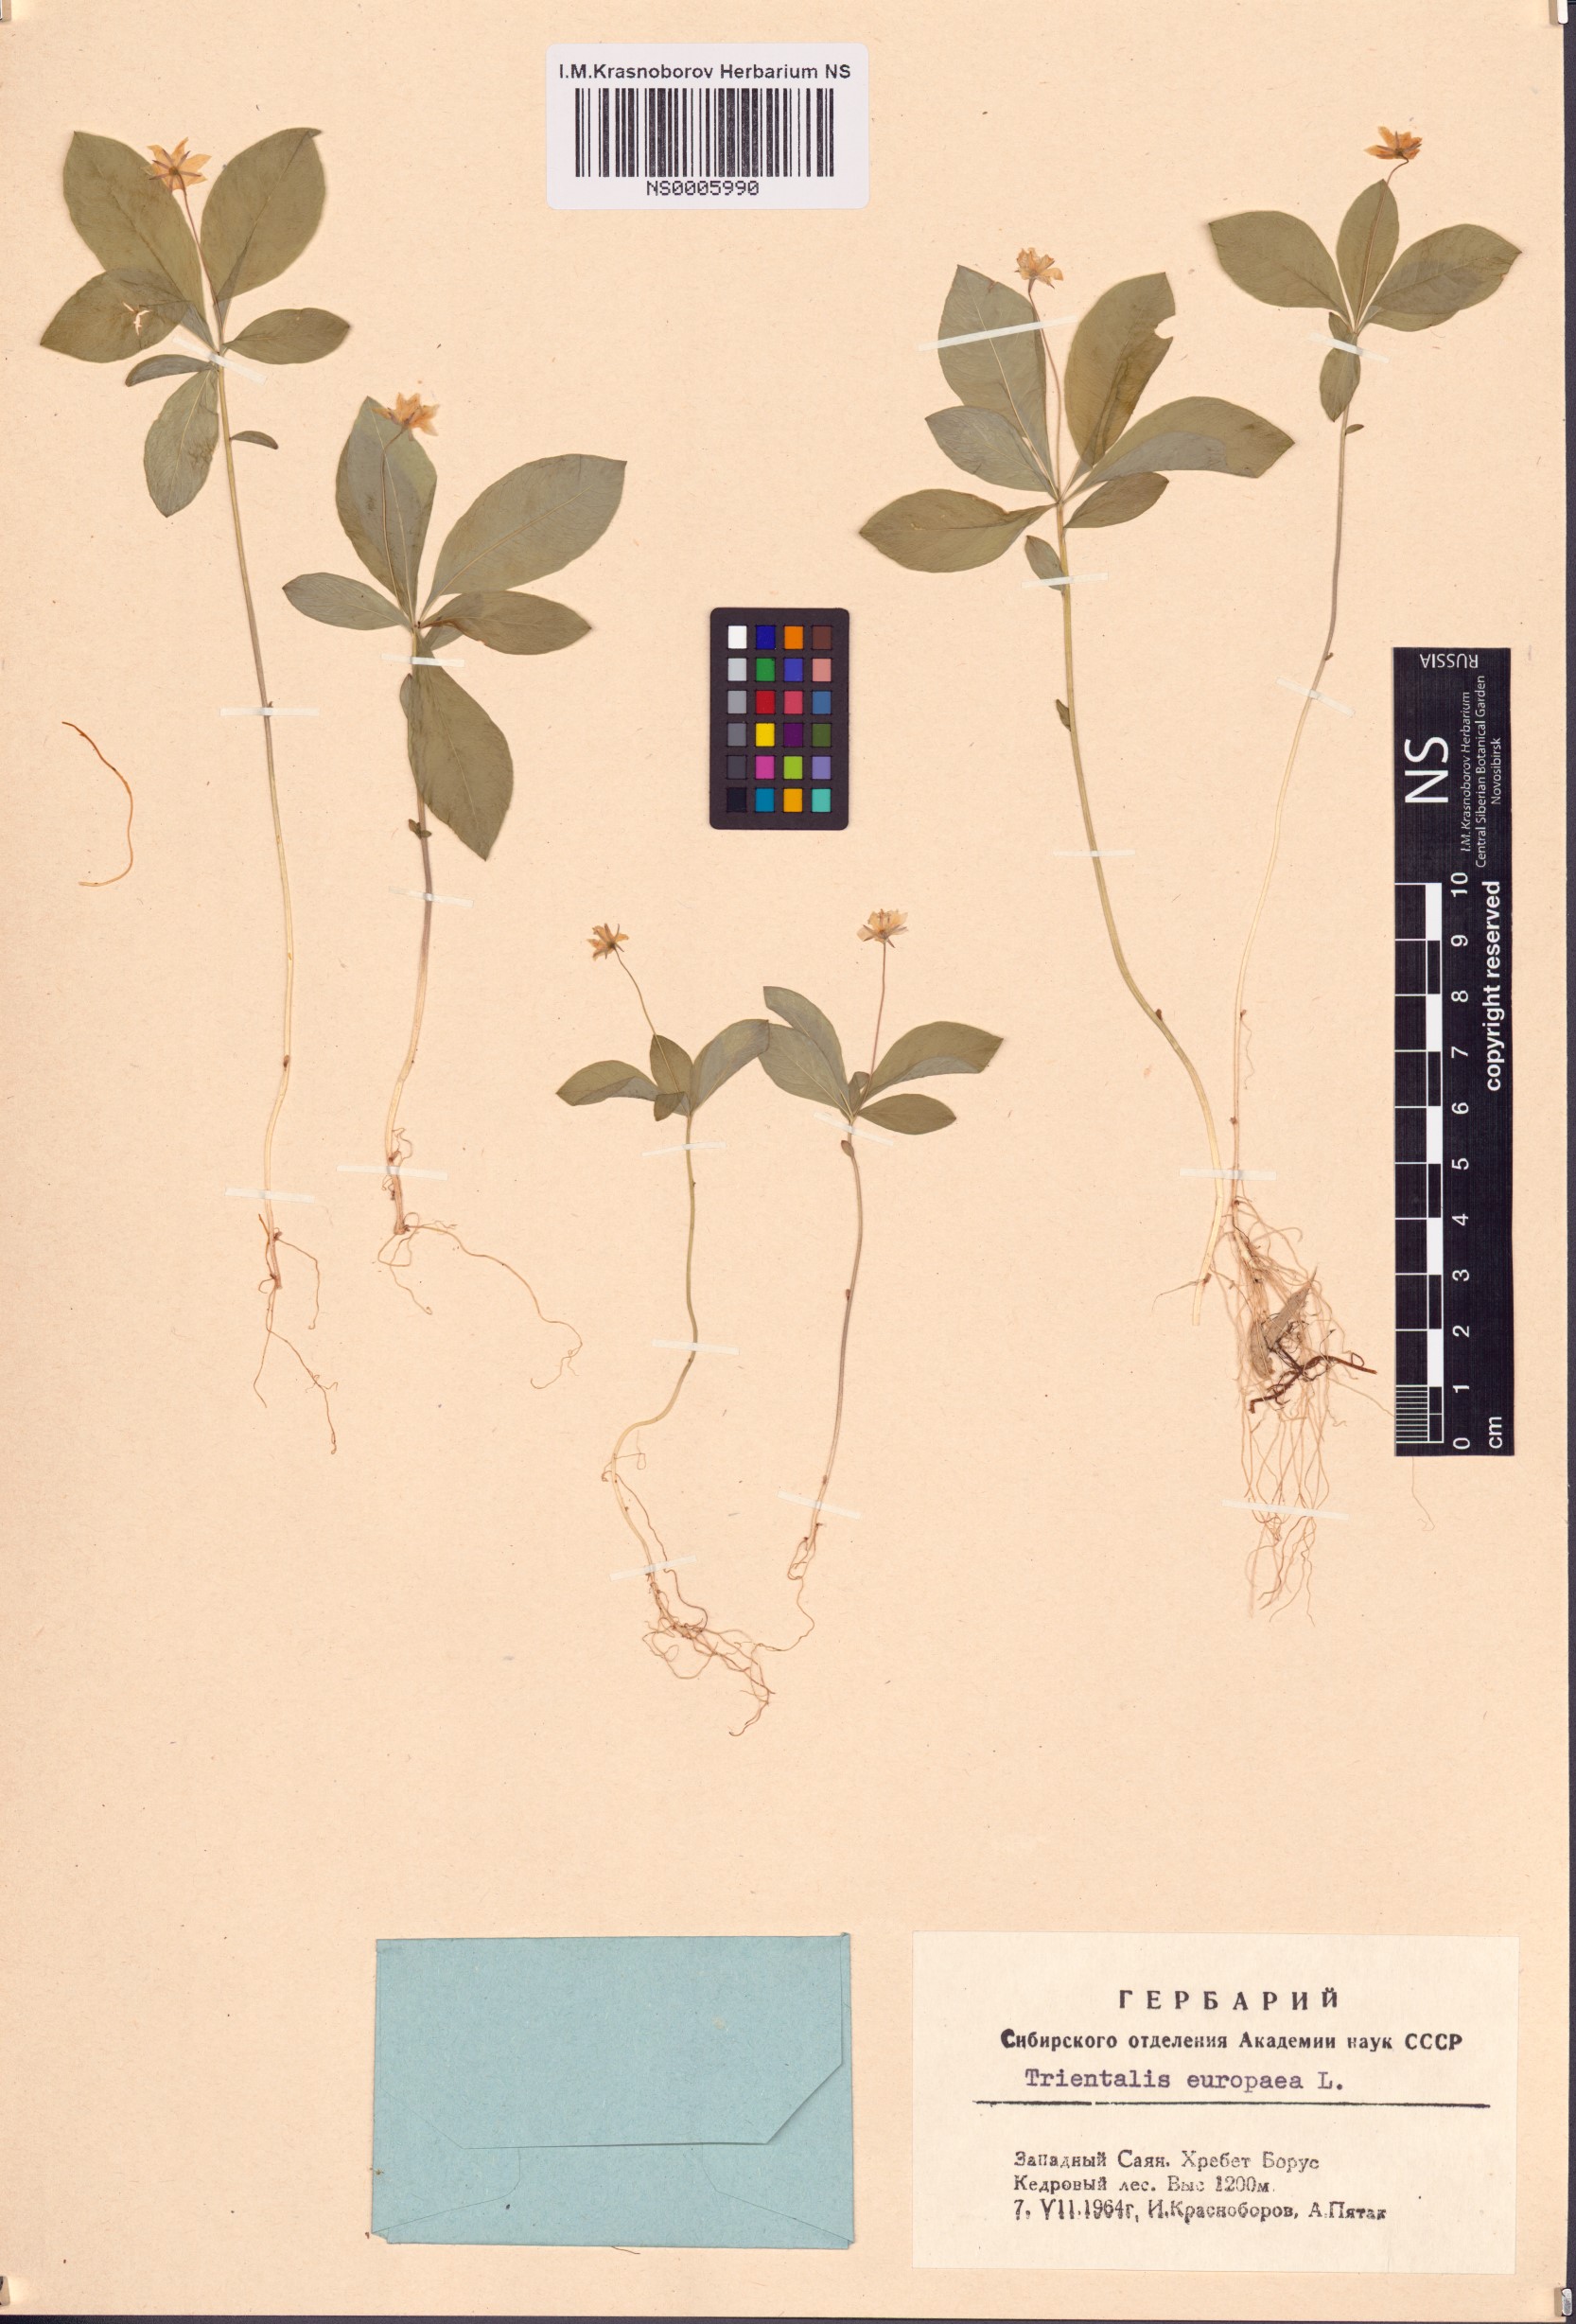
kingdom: Plantae
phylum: Tracheophyta
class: Magnoliopsida
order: Ericales
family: Primulaceae
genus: Lysimachia
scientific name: Lysimachia europaea
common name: Arctic starflower
